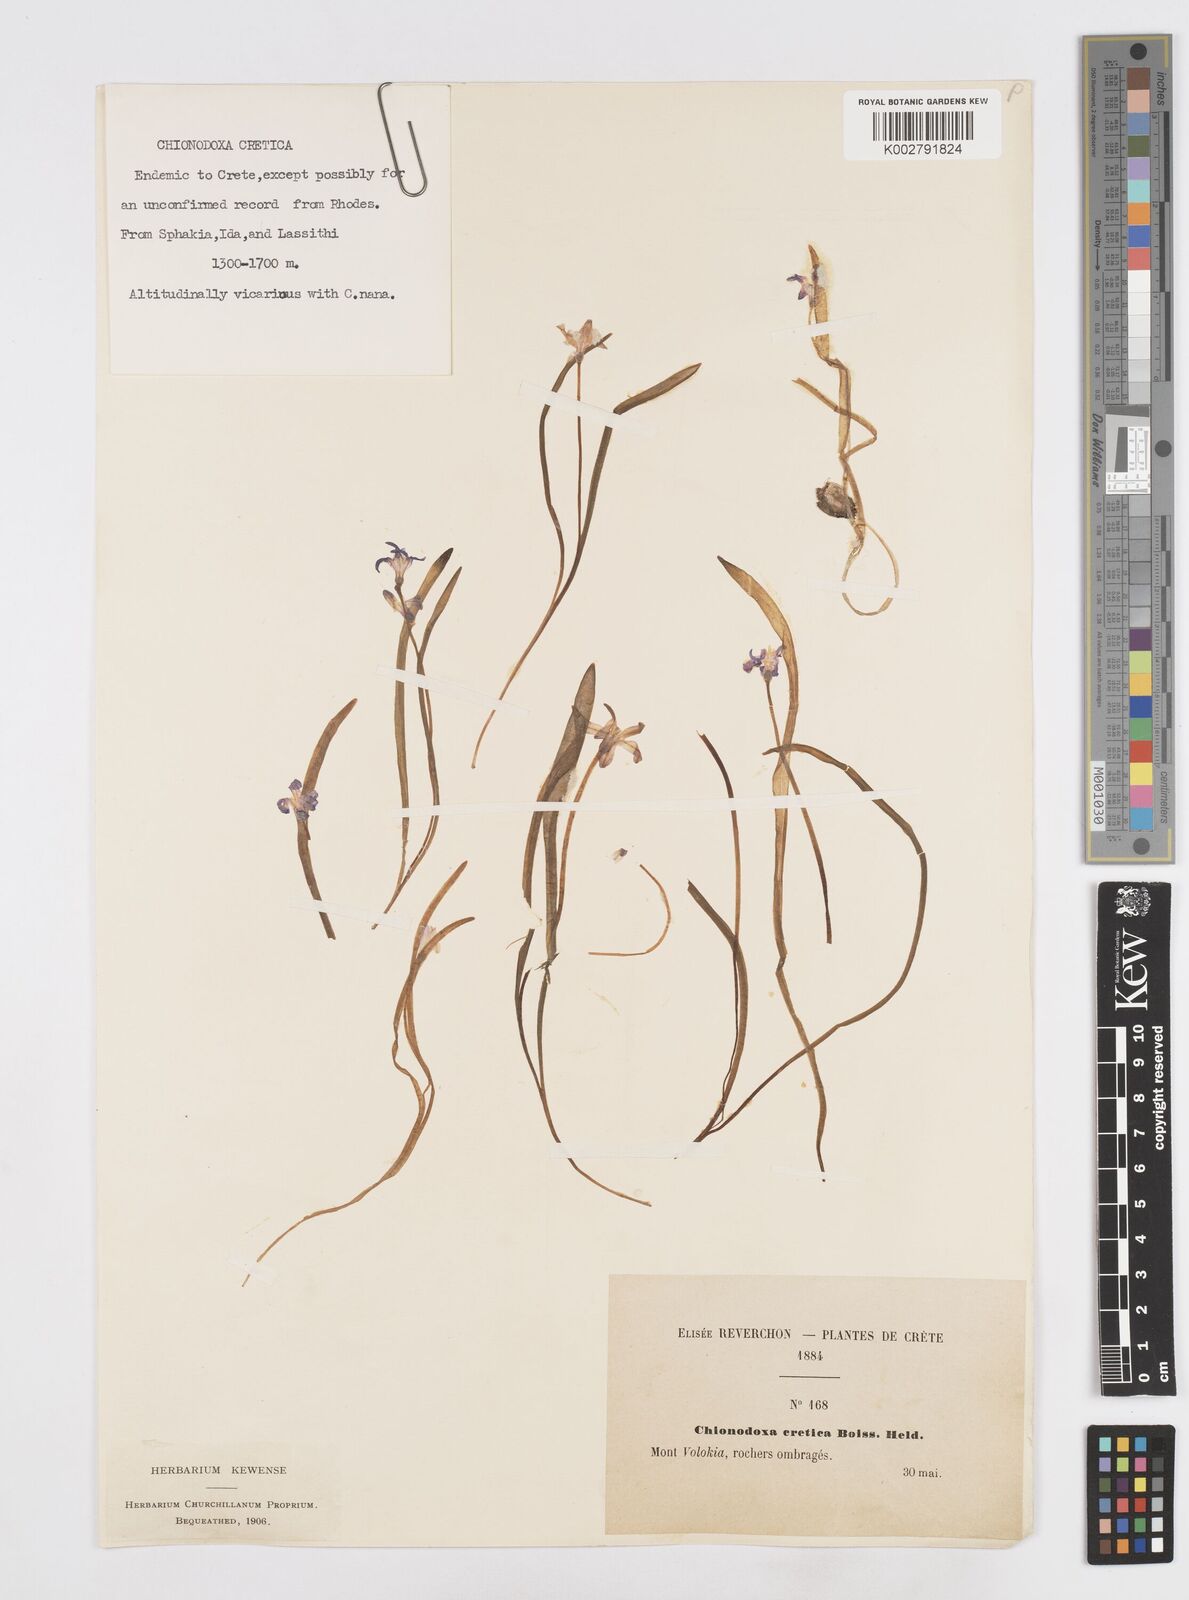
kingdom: Plantae
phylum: Tracheophyta
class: Liliopsida
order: Asparagales
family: Asparagaceae
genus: Scilla
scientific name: Scilla cretica
